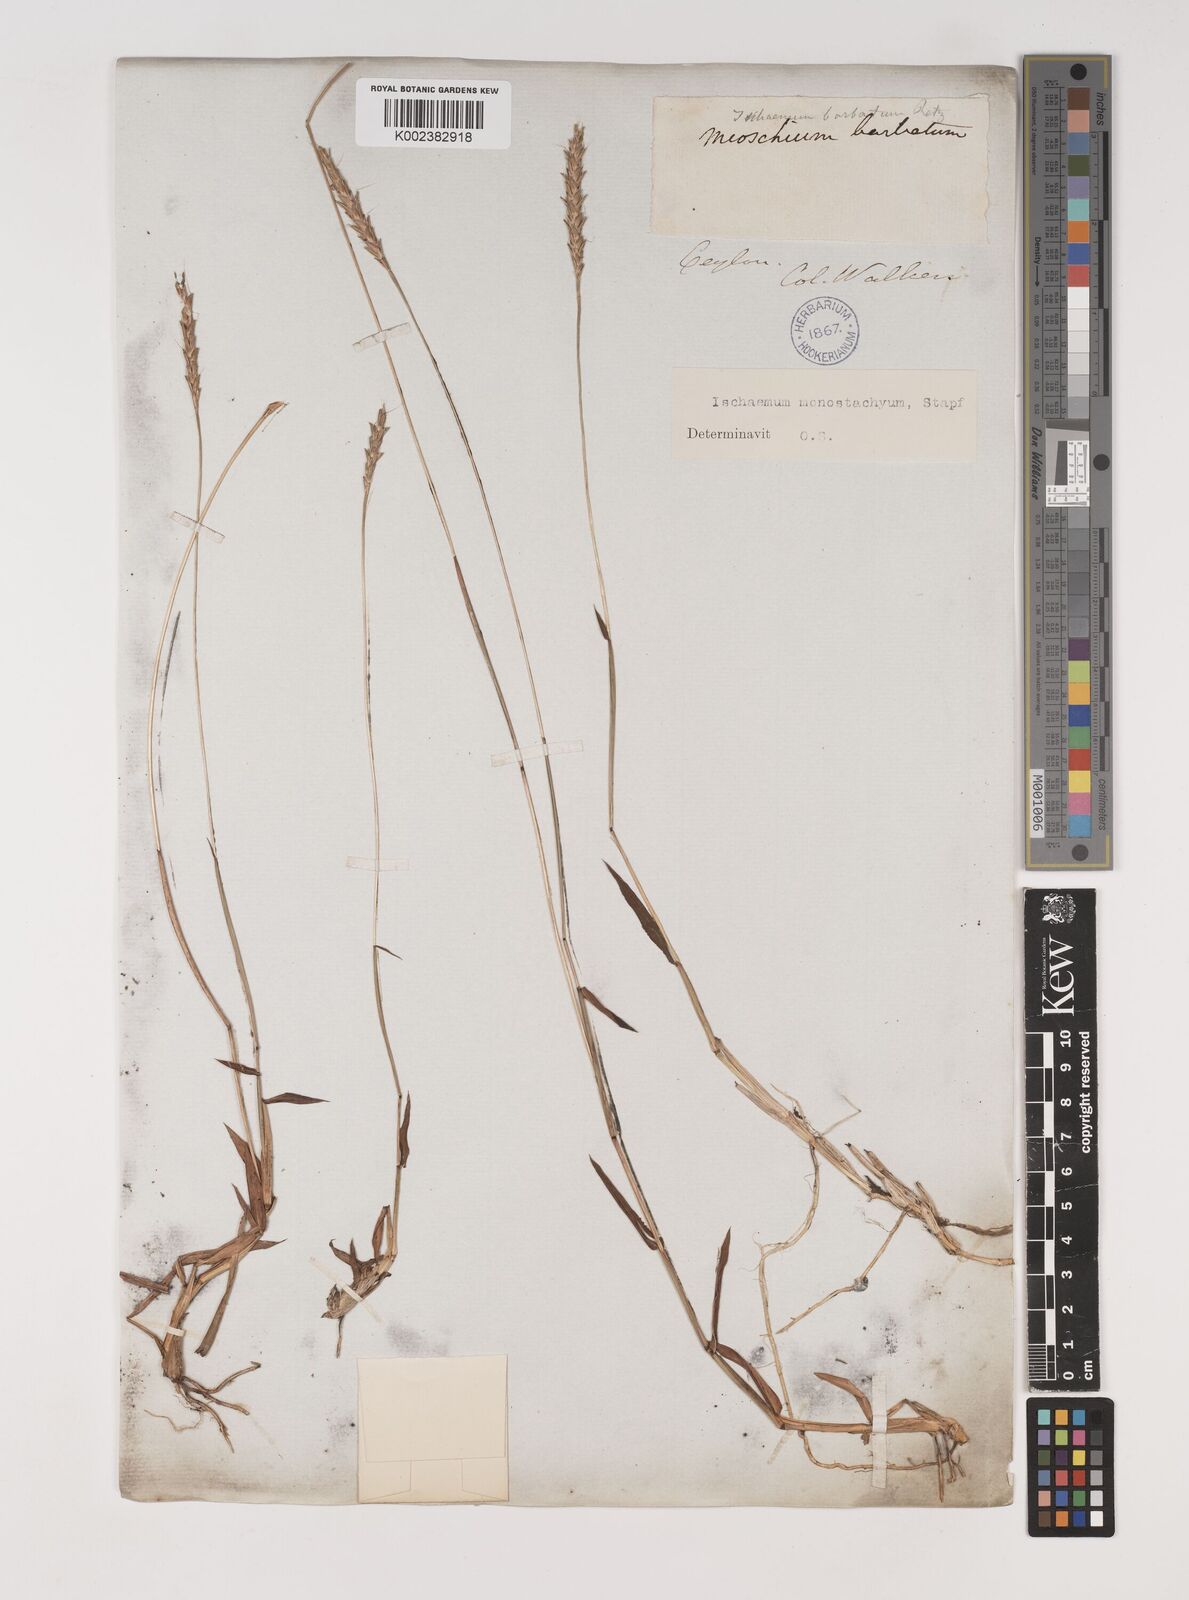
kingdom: Plantae
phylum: Tracheophyta
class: Liliopsida
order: Poales
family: Poaceae
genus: Ischaemum
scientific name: Ischaemum
